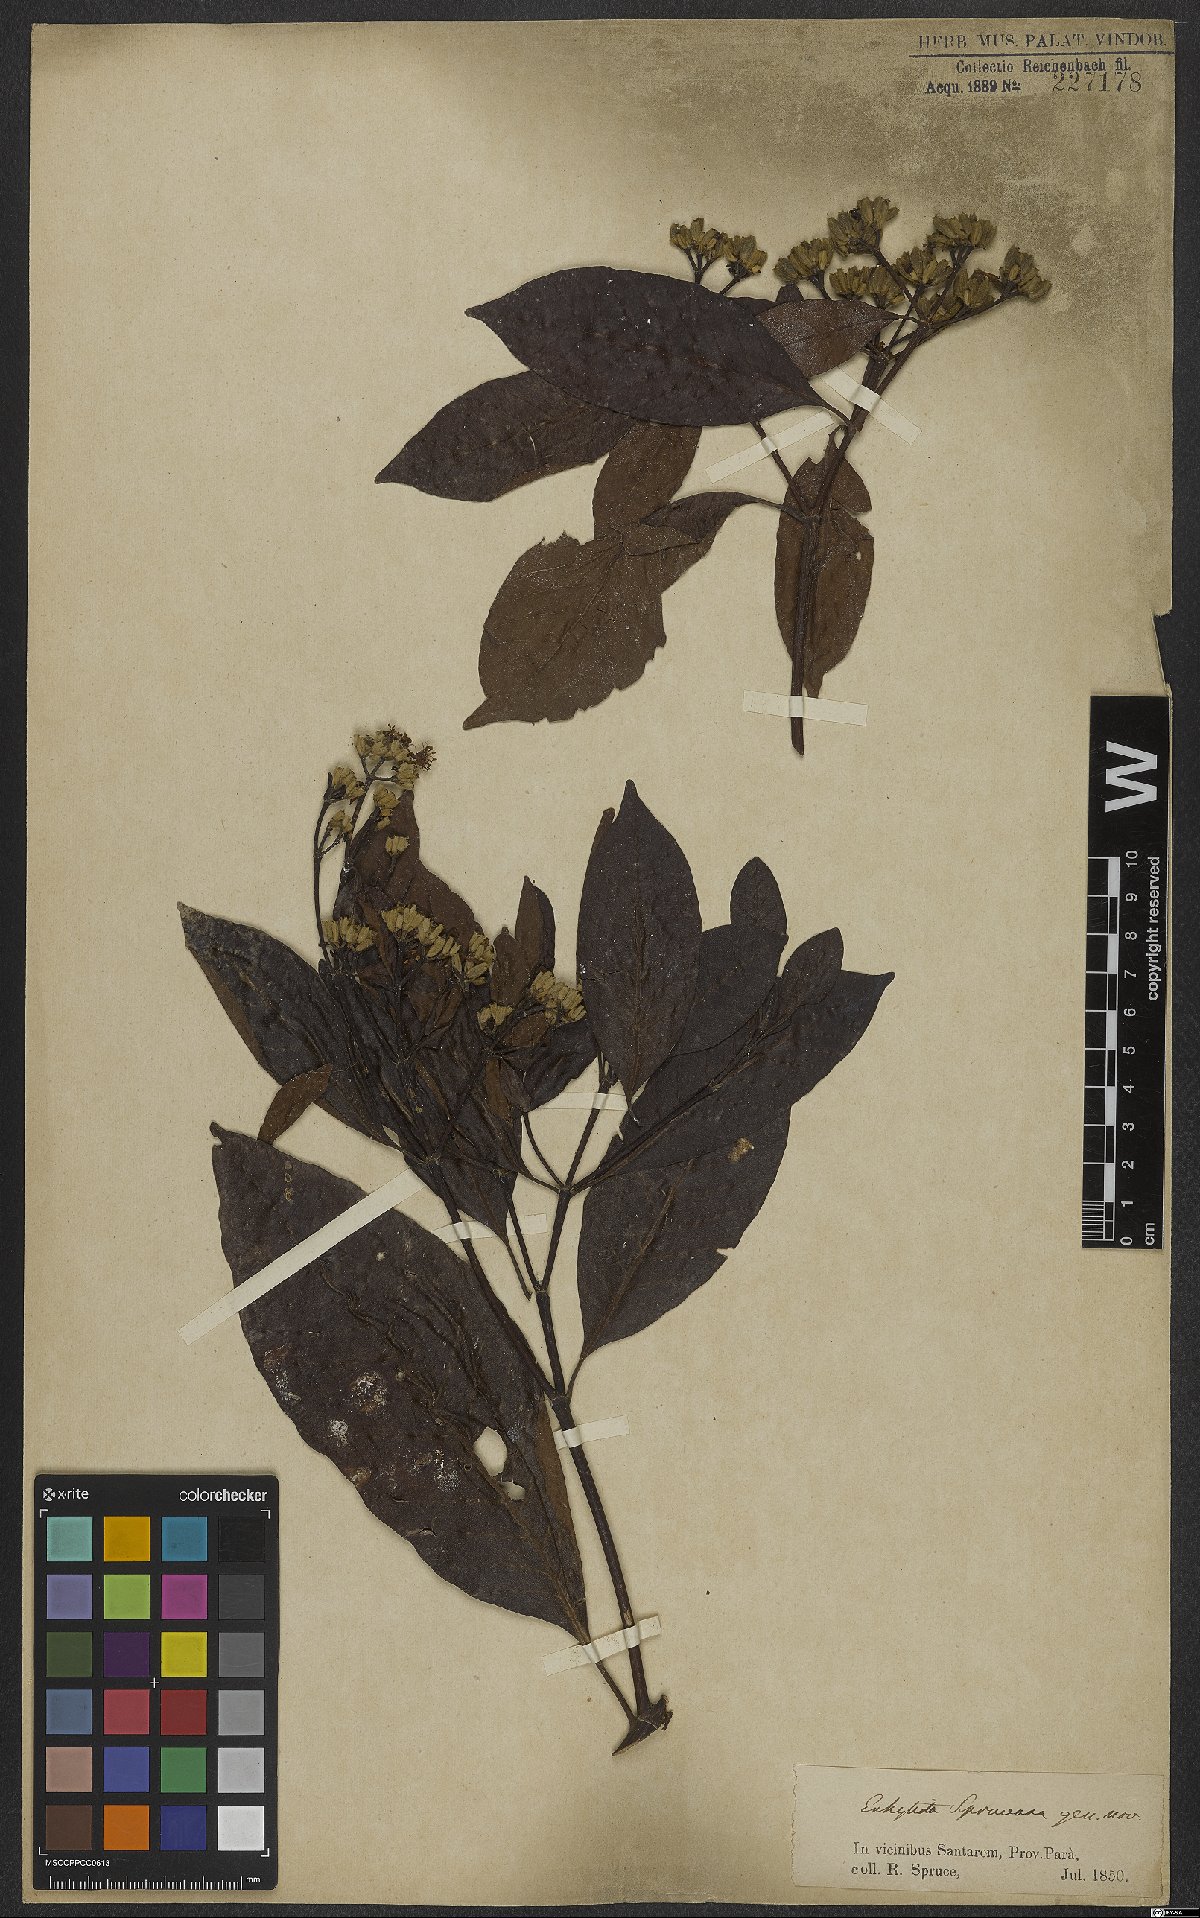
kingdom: Plantae
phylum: Tracheophyta
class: Magnoliopsida
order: Gentianales
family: Rubiaceae
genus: Calycophyllum
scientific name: Calycophyllum spruceanum
